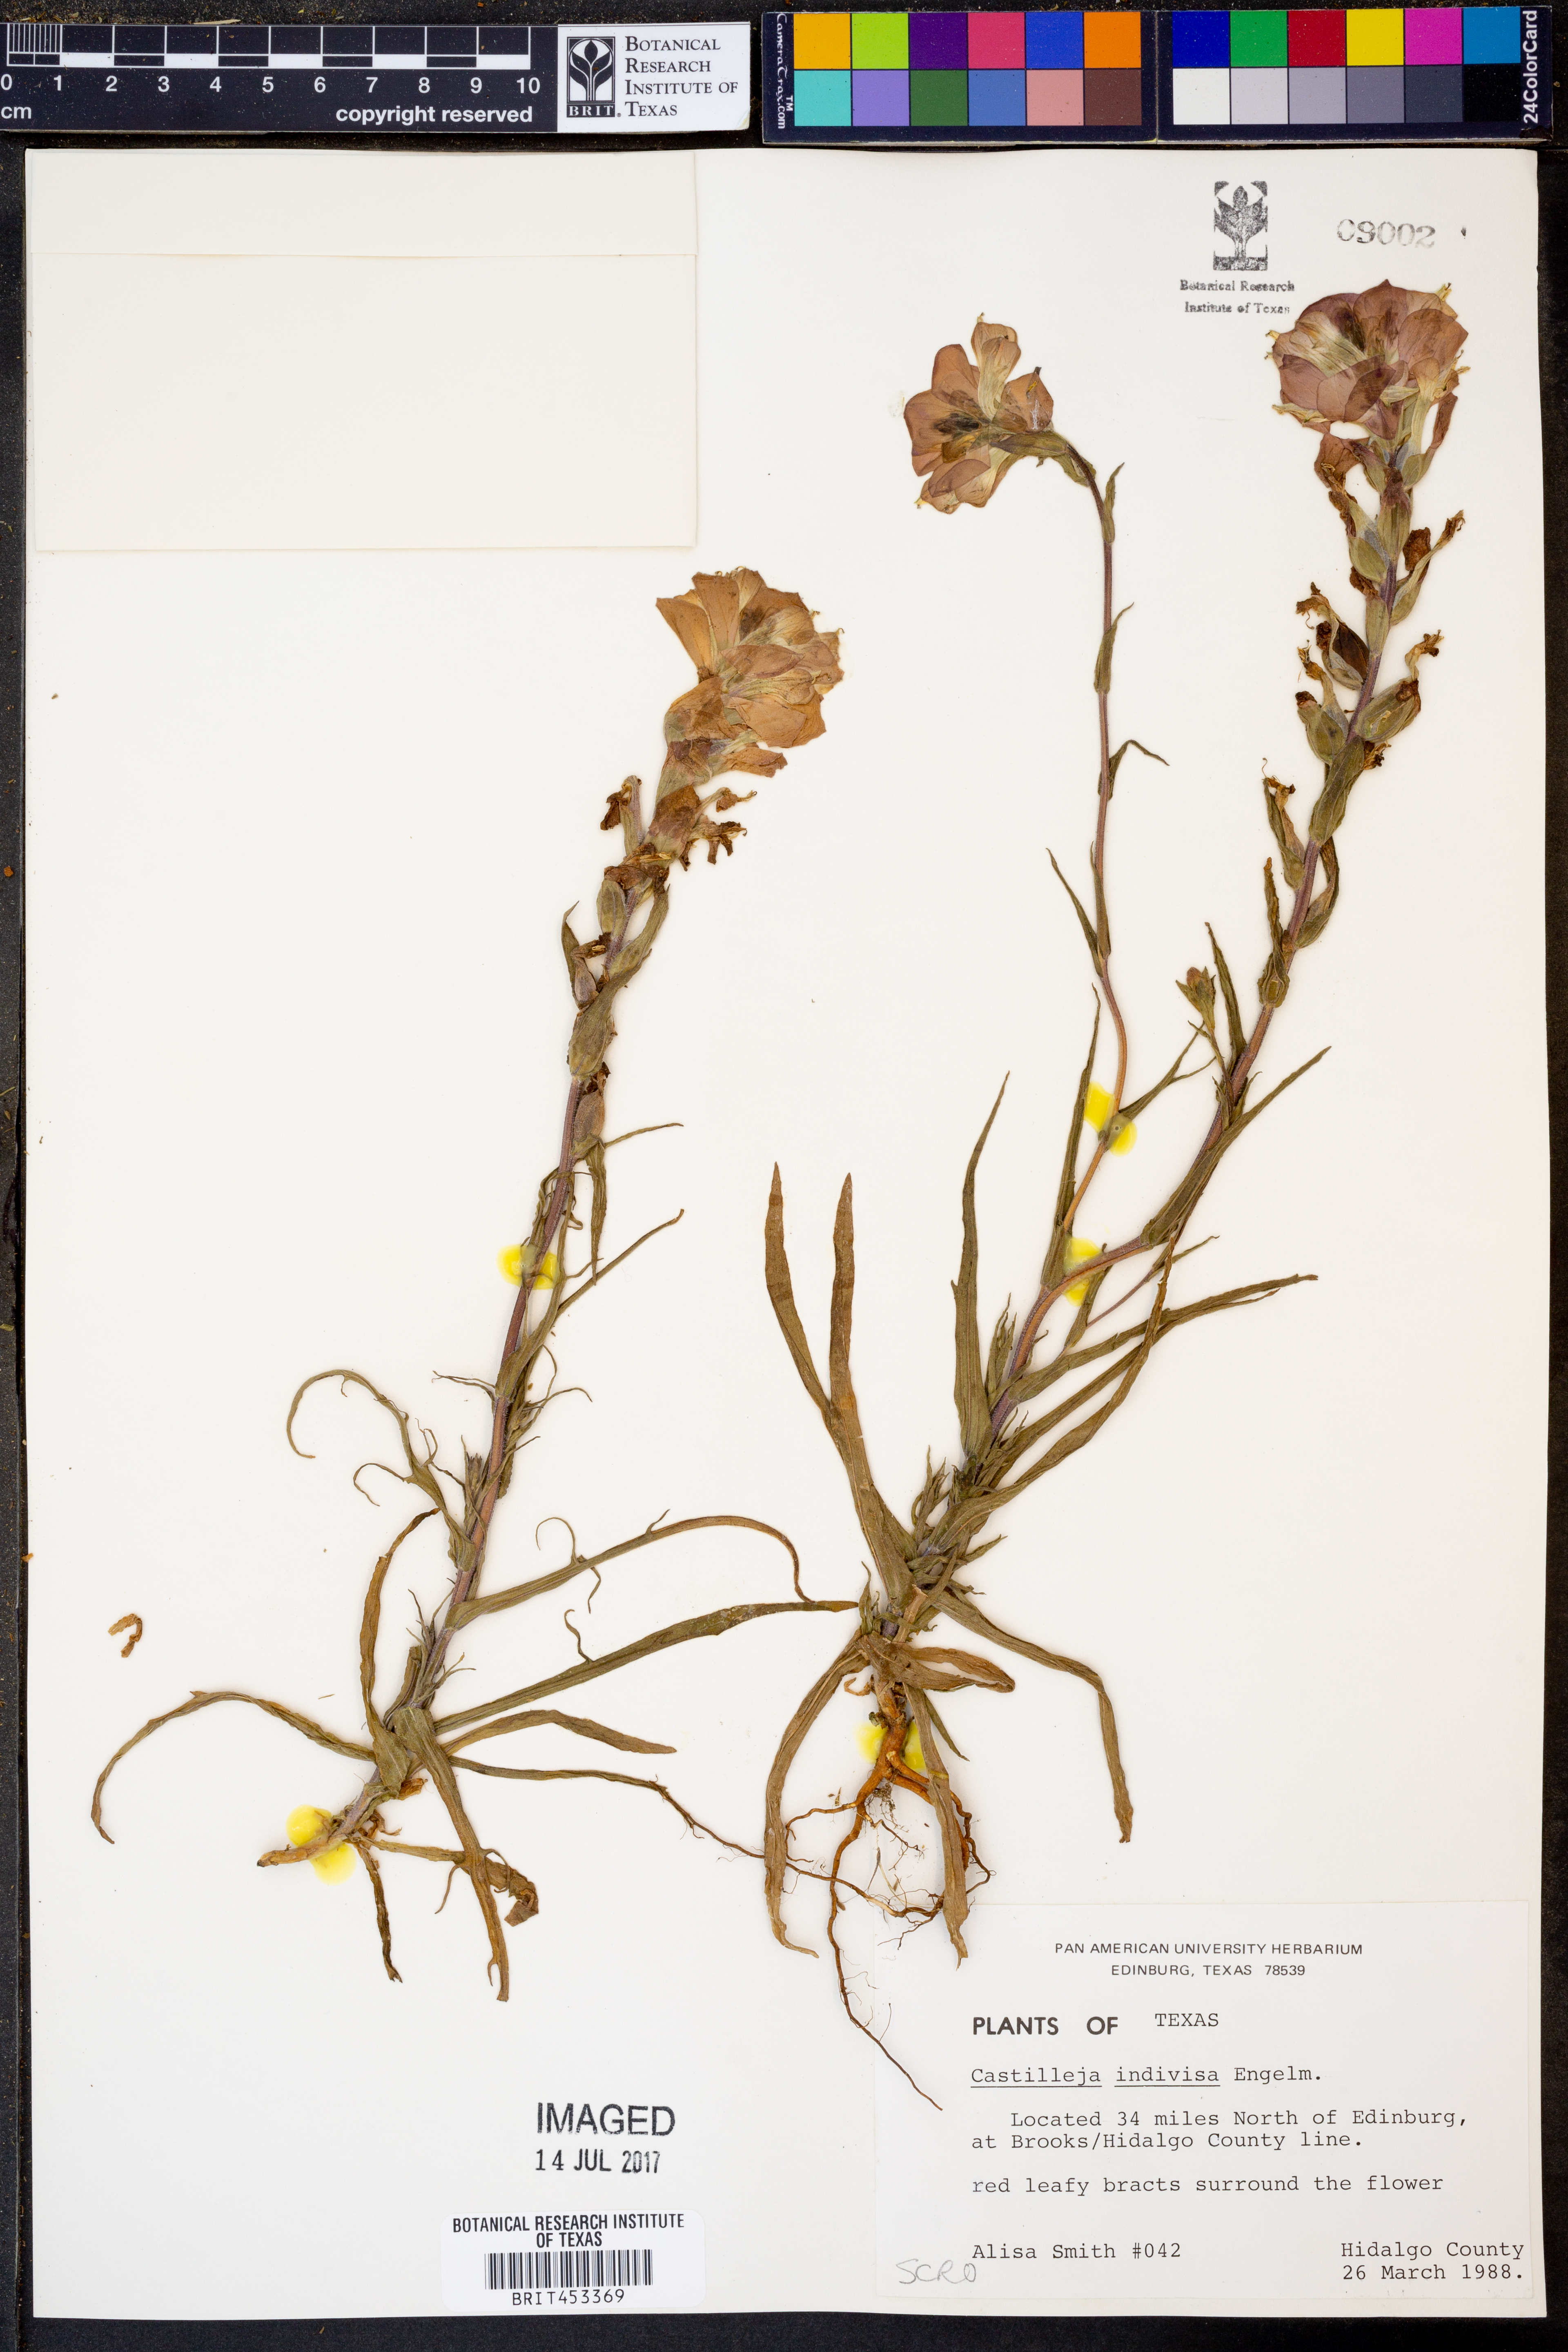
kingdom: Plantae
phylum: Tracheophyta
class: Magnoliopsida
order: Lamiales
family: Orobanchaceae
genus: Castilleja
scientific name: Castilleja indivisa
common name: Texas paintbrush
